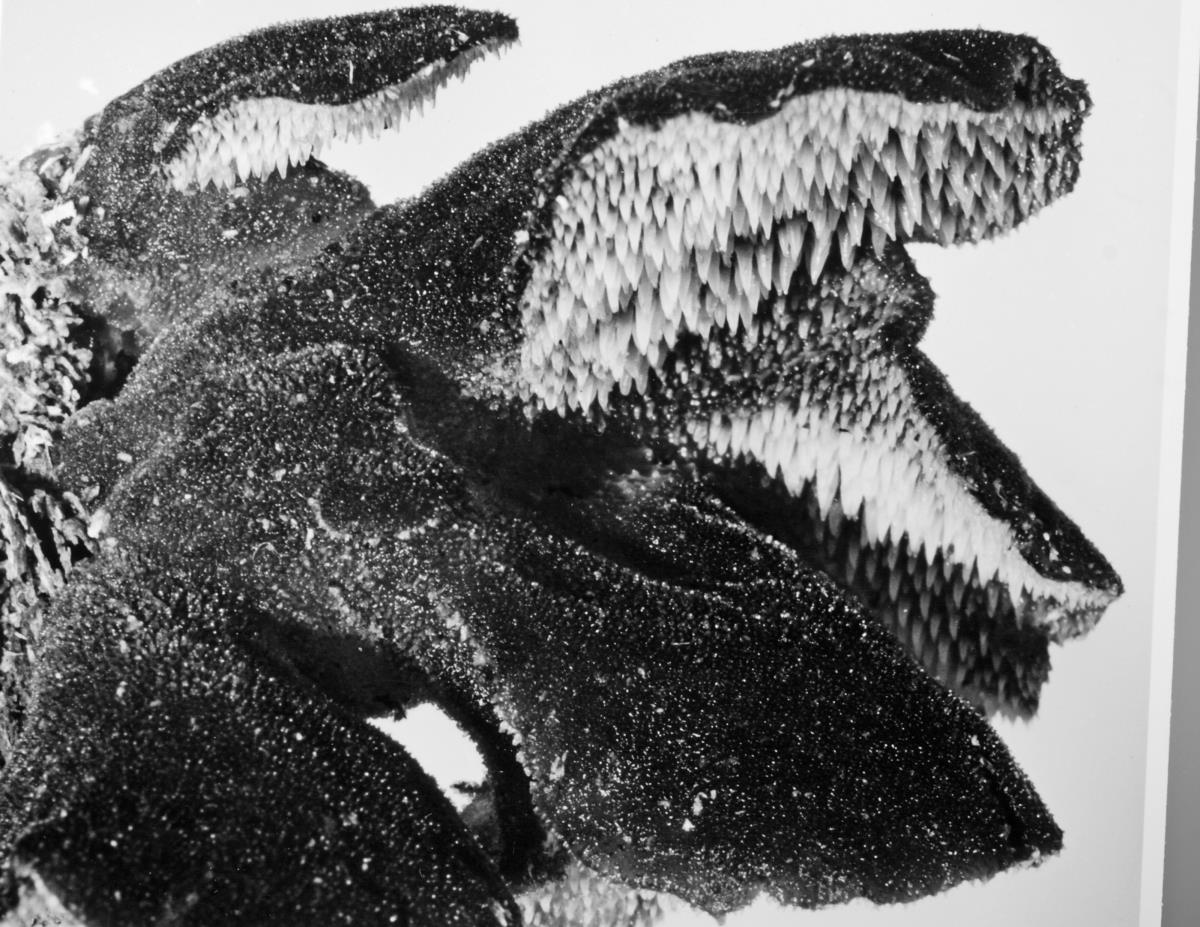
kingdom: Fungi
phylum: Basidiomycota
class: Agaricomycetes
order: Auriculariales
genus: Pseudohydnum
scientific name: Pseudohydnum gelatinosum
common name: Jelly tongue
